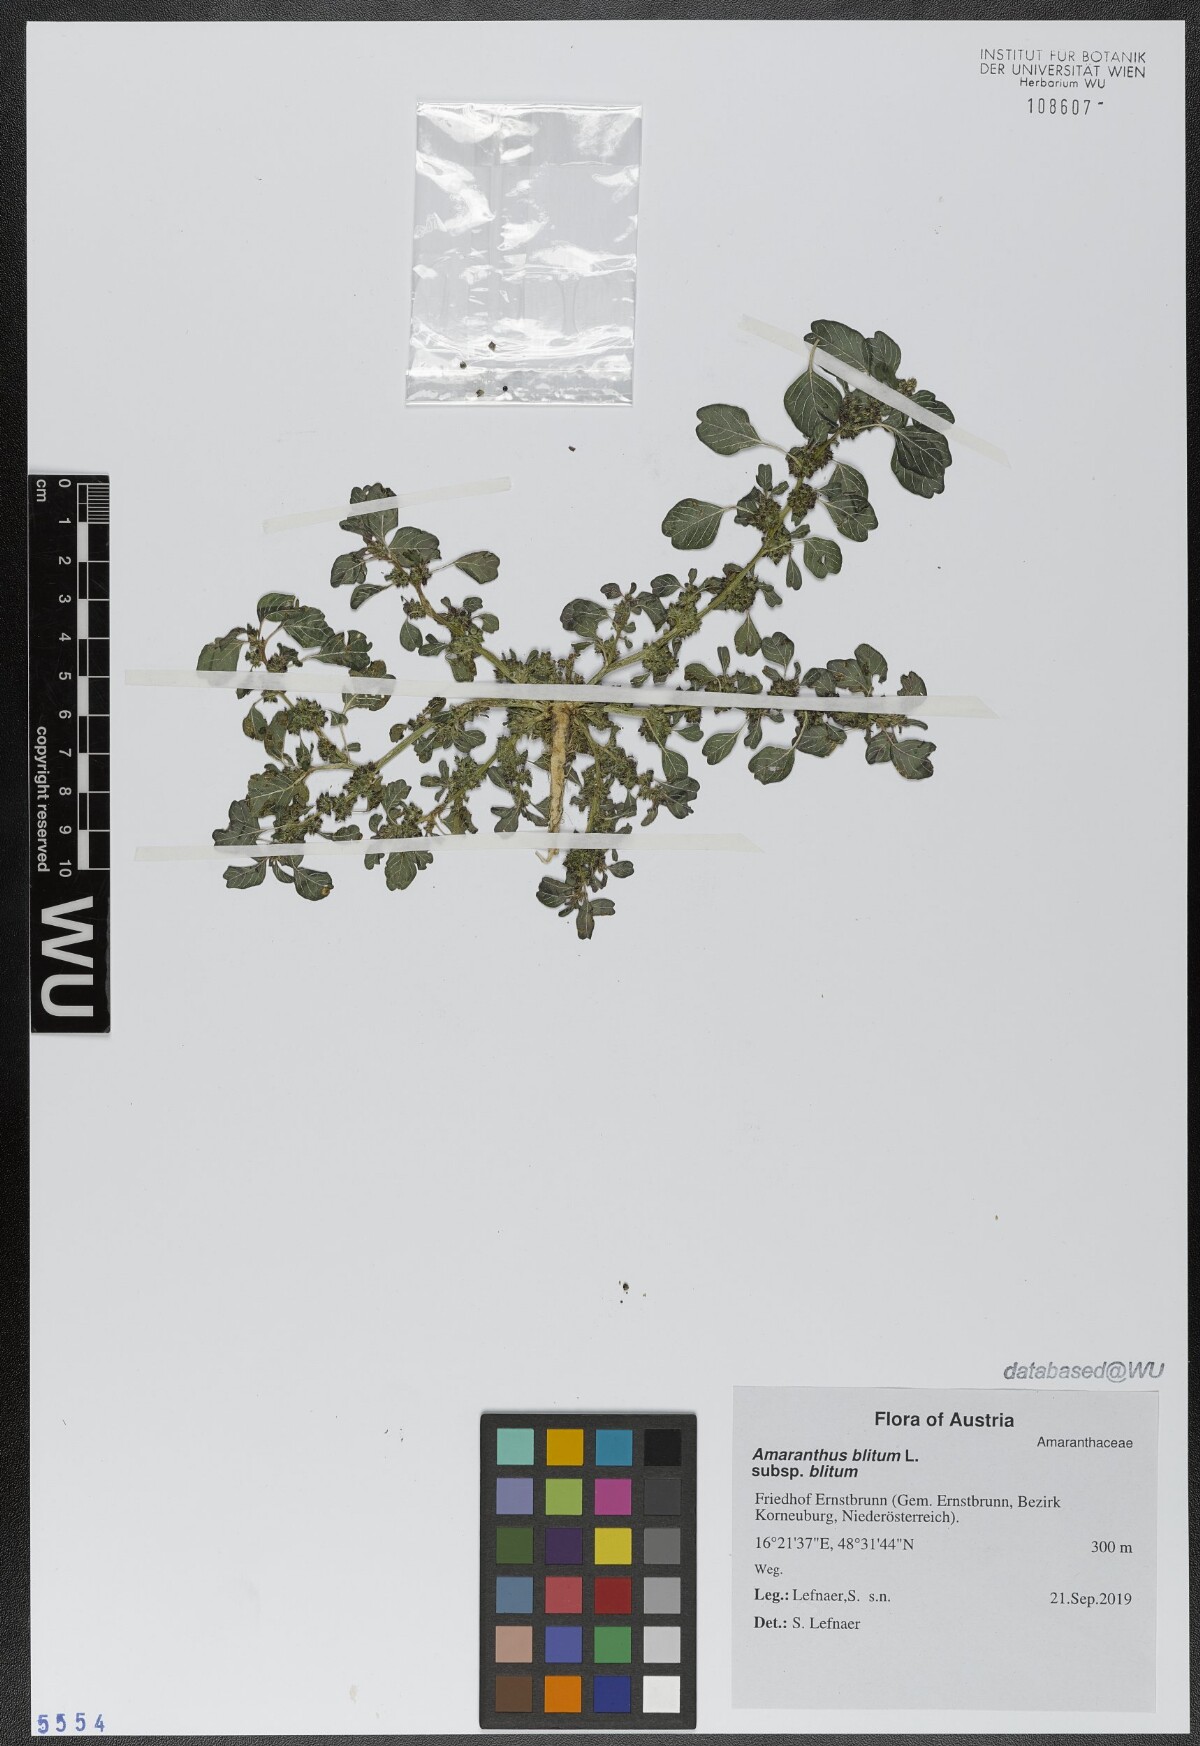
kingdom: Plantae
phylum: Tracheophyta
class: Magnoliopsida
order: Caryophyllales
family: Amaranthaceae
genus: Amaranthus
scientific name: Amaranthus blitum
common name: Purple amaranth
